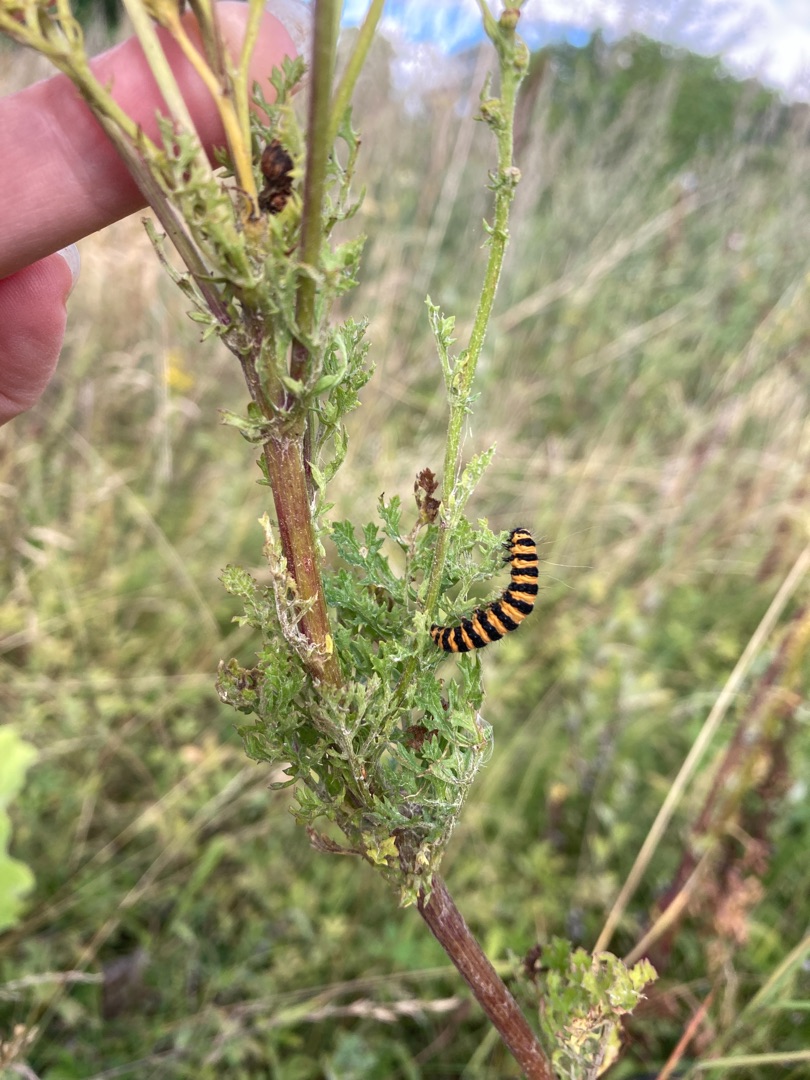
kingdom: Animalia
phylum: Arthropoda
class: Insecta
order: Lepidoptera
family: Erebidae
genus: Tyria
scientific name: Tyria jacobaeae
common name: Blodplet
